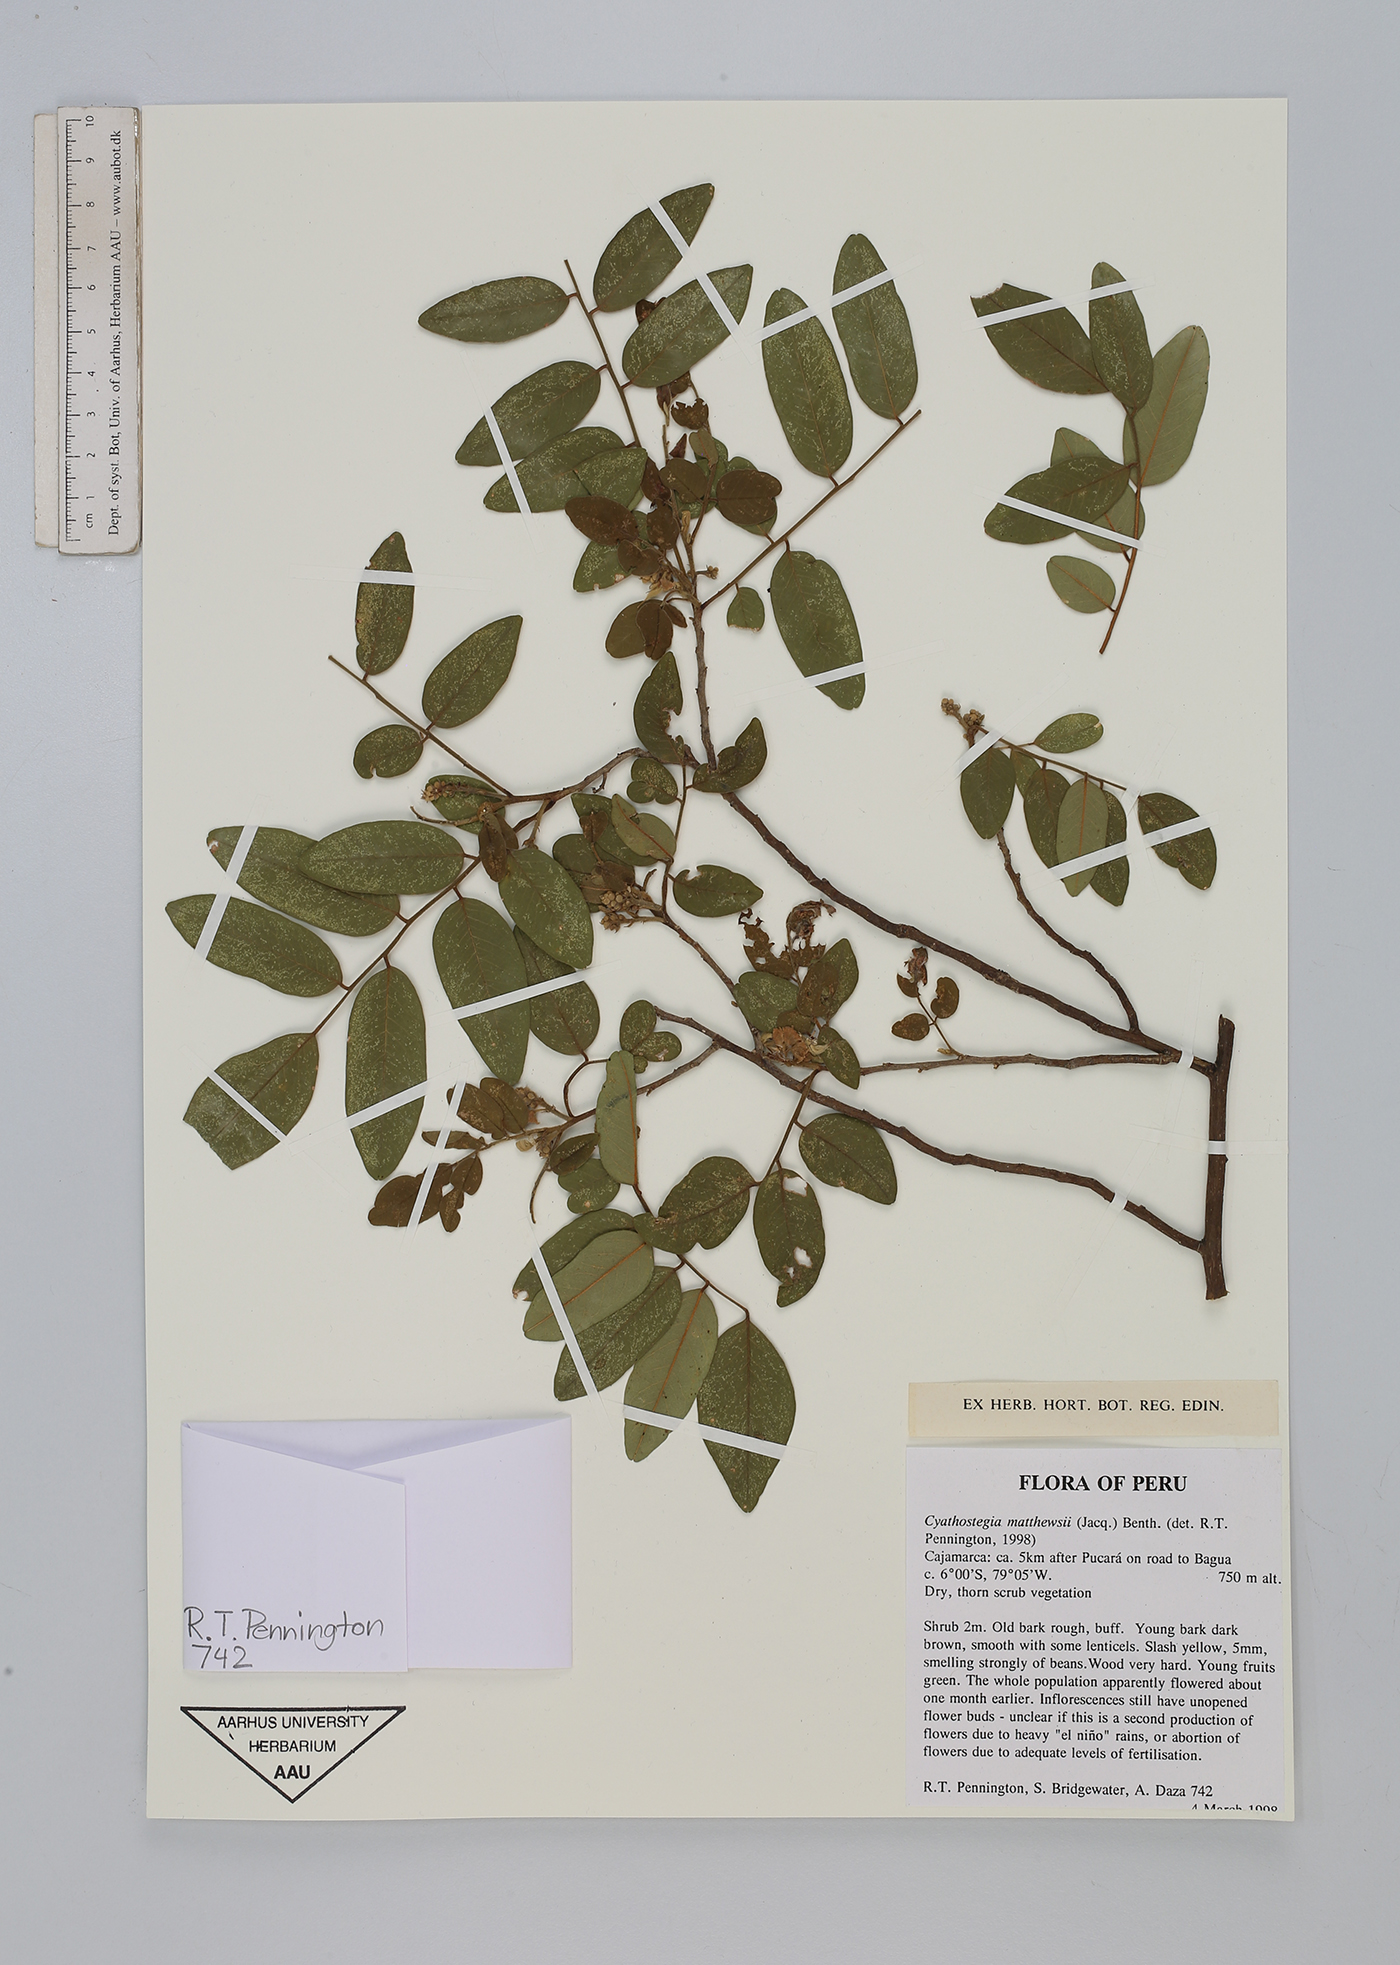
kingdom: Plantae
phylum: Tracheophyta
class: Magnoliopsida
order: Fabales
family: Fabaceae
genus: Cyathostegia
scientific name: Cyathostegia matthewsii
